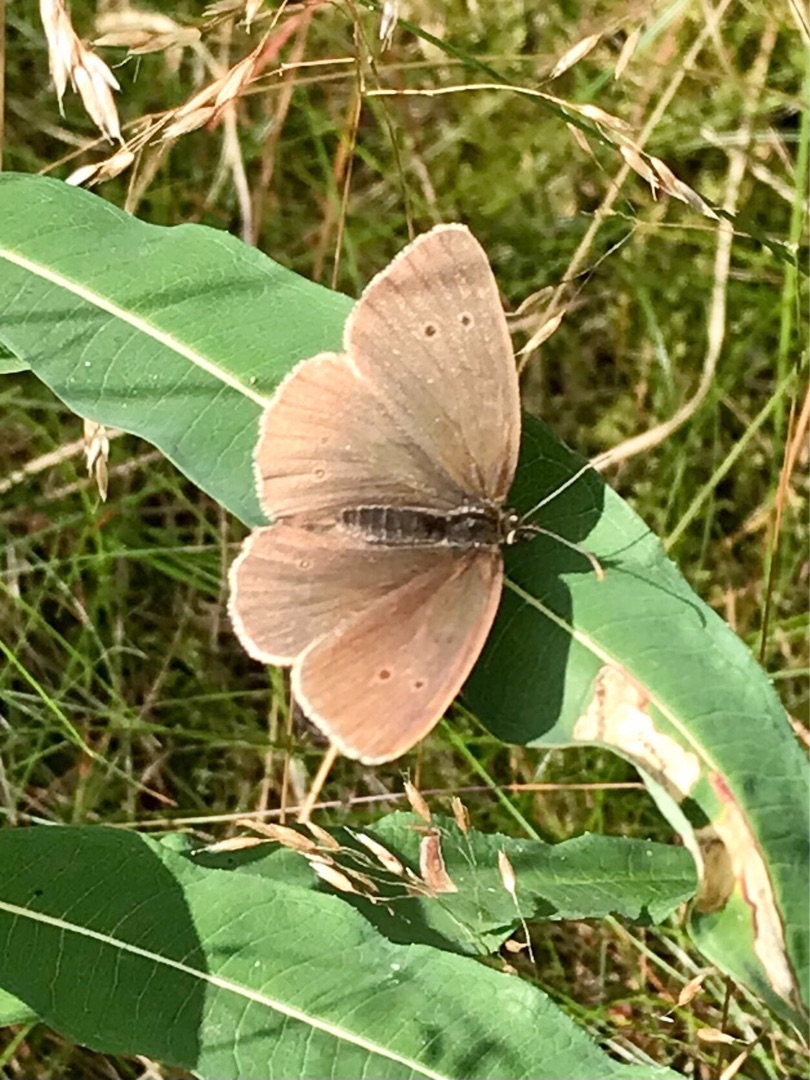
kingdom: Animalia
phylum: Arthropoda
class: Insecta
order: Lepidoptera
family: Nymphalidae
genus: Aphantopus
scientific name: Aphantopus hyperantus
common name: Engrandøje
